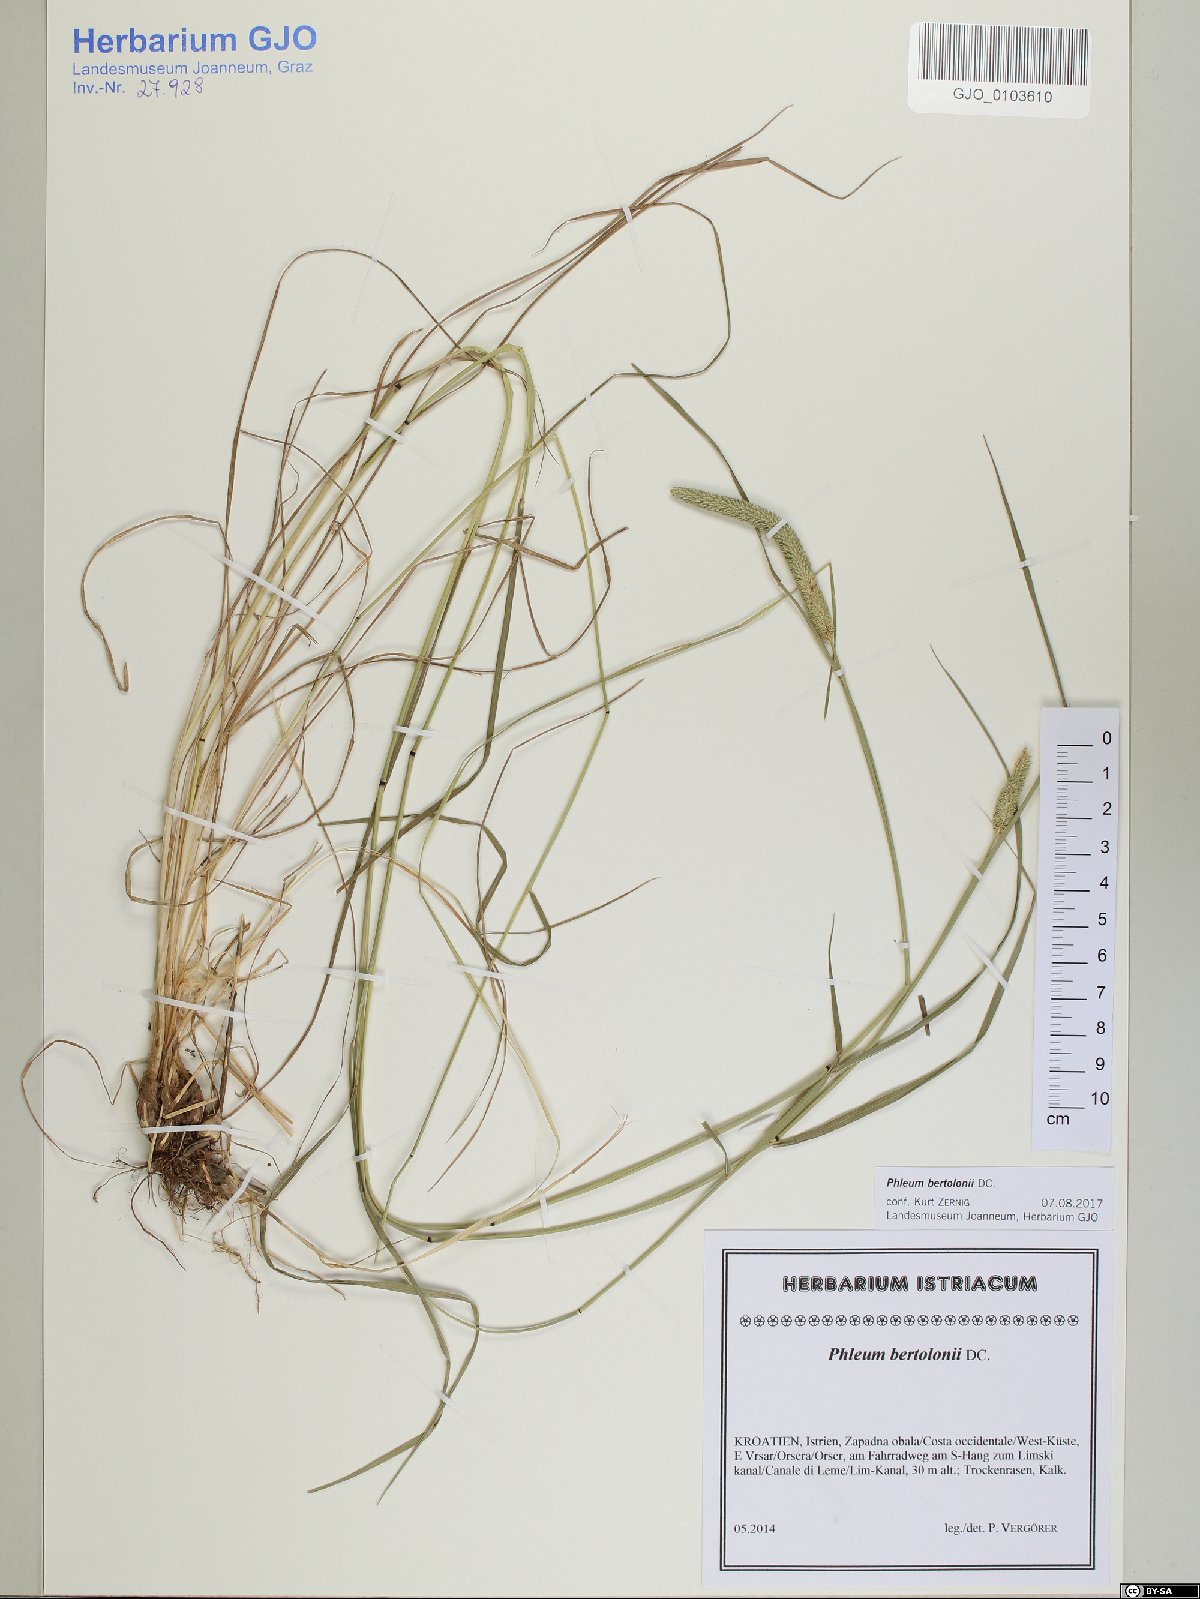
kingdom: Plantae
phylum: Tracheophyta
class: Liliopsida
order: Poales
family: Poaceae
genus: Phleum
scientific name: Phleum bertolonii
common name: Smaller cat's-tail
